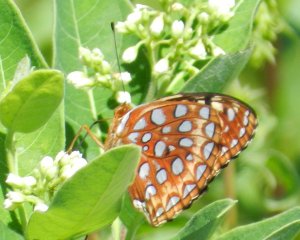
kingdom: Animalia
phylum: Arthropoda
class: Insecta
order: Lepidoptera
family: Nymphalidae
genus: Speyeria
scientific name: Speyeria aphrodite
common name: Aphrodite Fritillary
